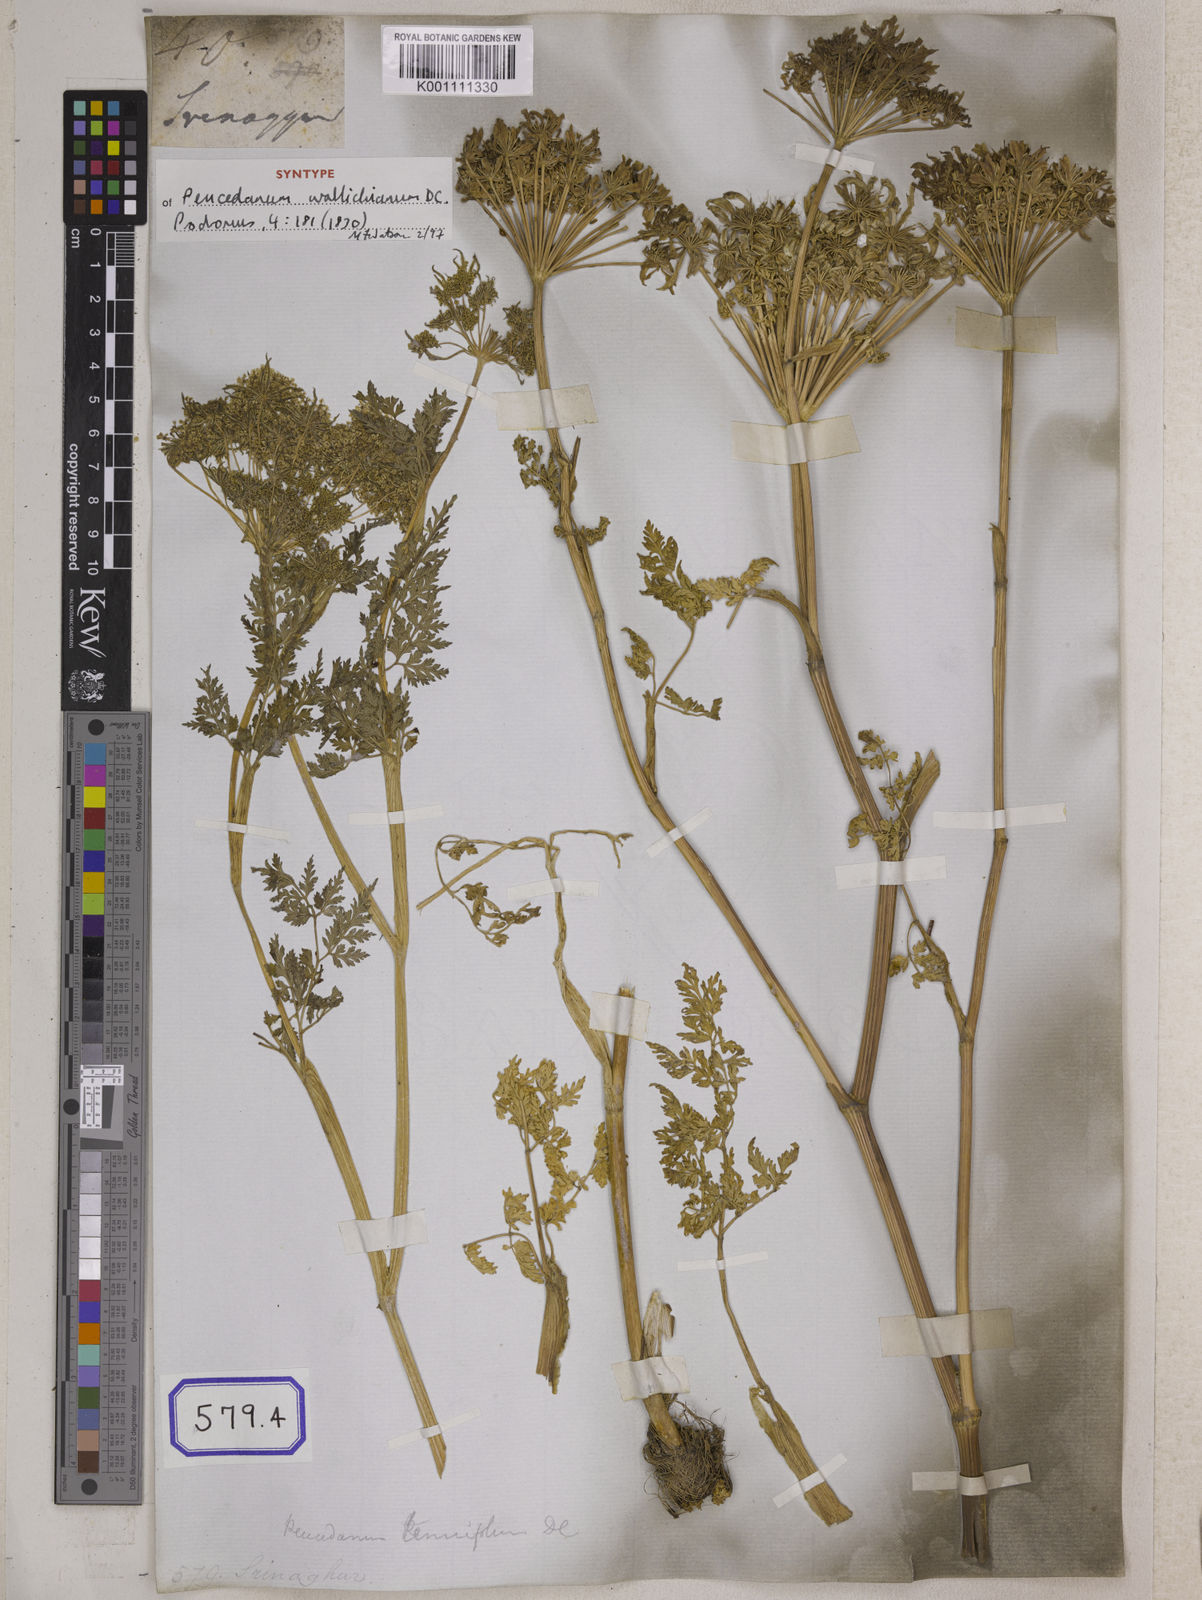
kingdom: Plantae
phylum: Tracheophyta
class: Magnoliopsida
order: Apiales
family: Apiaceae
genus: Selinum
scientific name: Selinum
